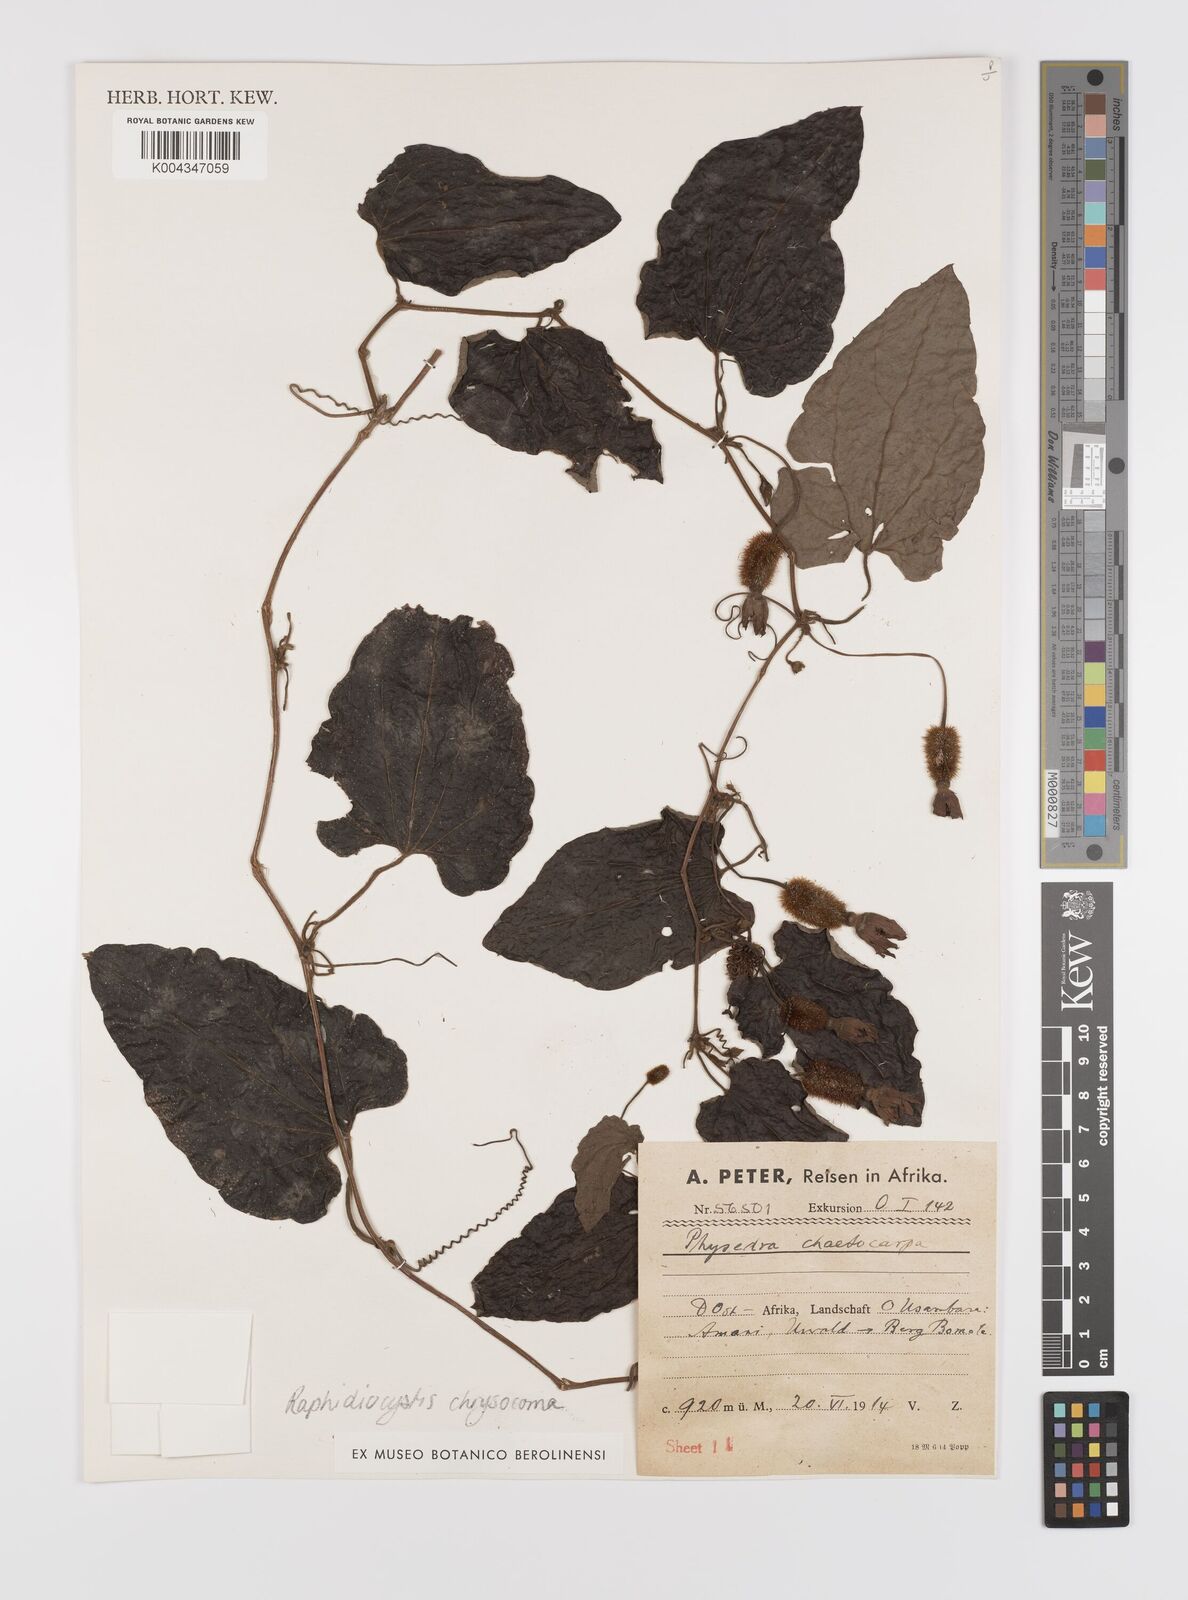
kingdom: Plantae
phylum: Tracheophyta
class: Magnoliopsida
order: Cucurbitales
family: Cucurbitaceae
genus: Raphidiocystis
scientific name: Raphidiocystis chrysocoma
